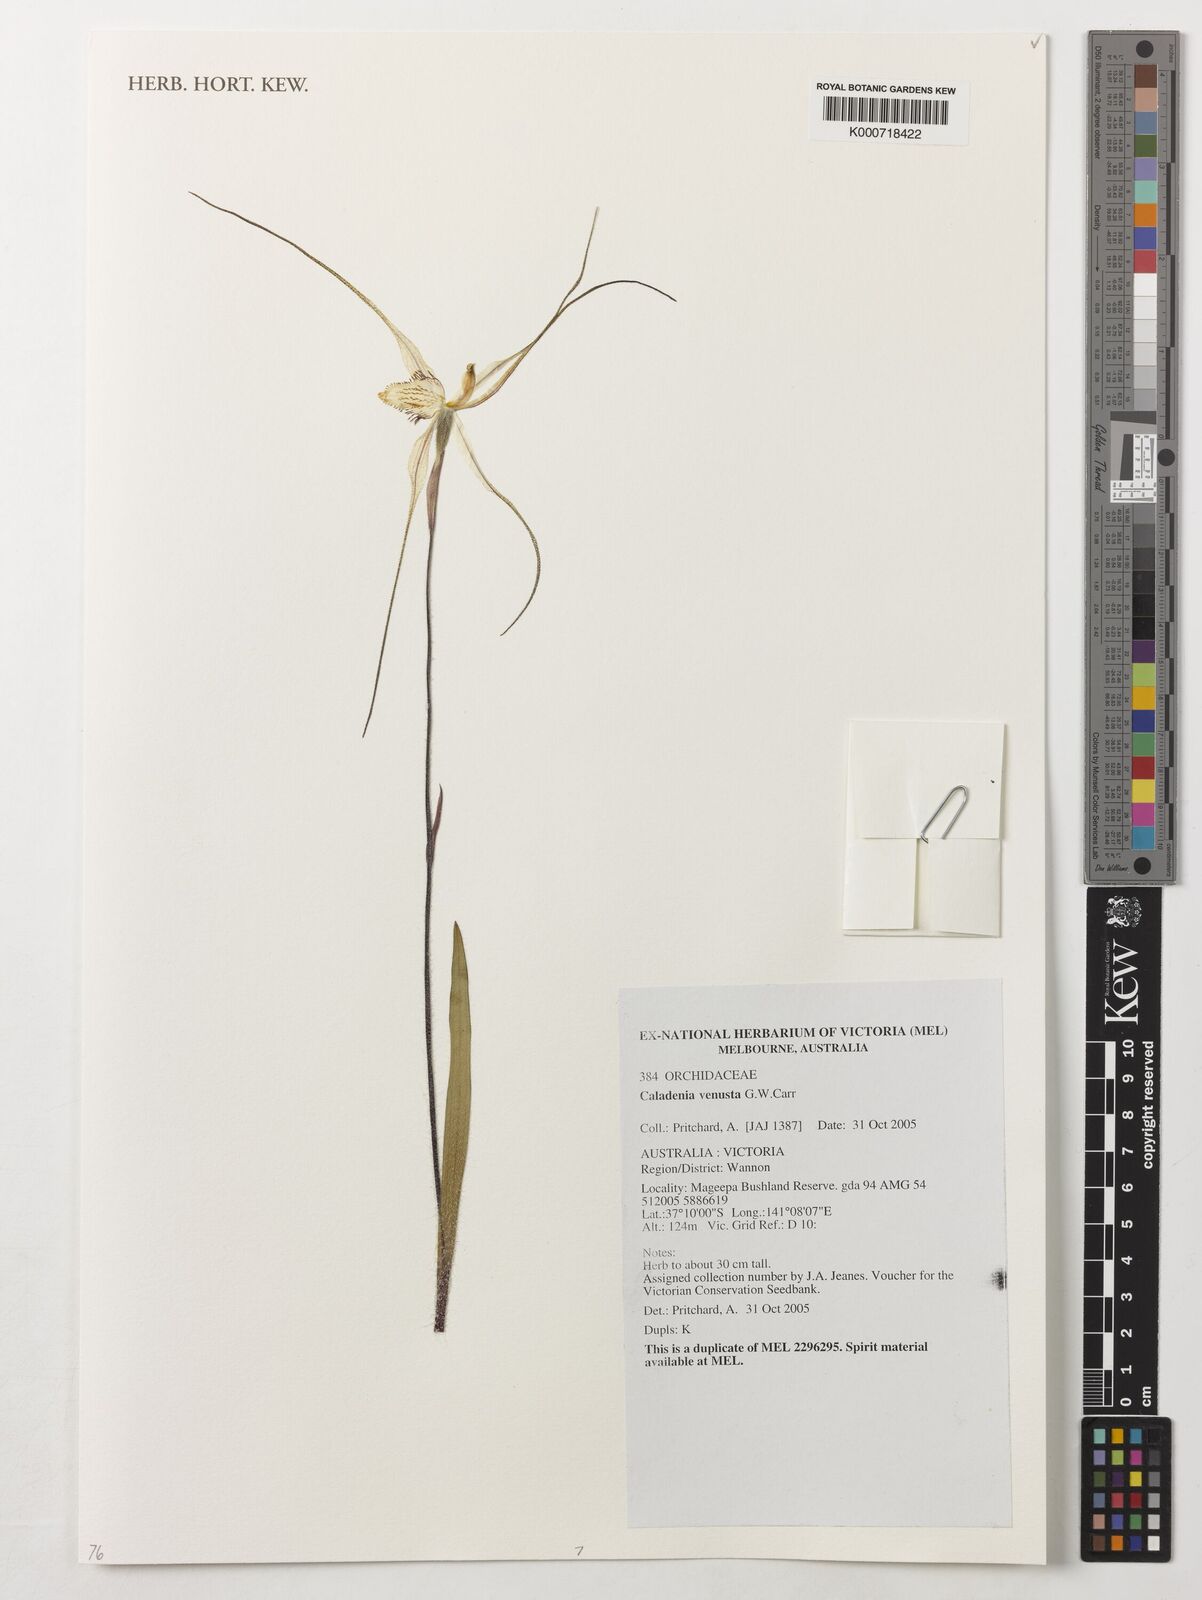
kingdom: Plantae
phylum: Tracheophyta
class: Liliopsida
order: Asparagales
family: Orchidaceae
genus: Caladenia
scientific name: Caladenia venusta
